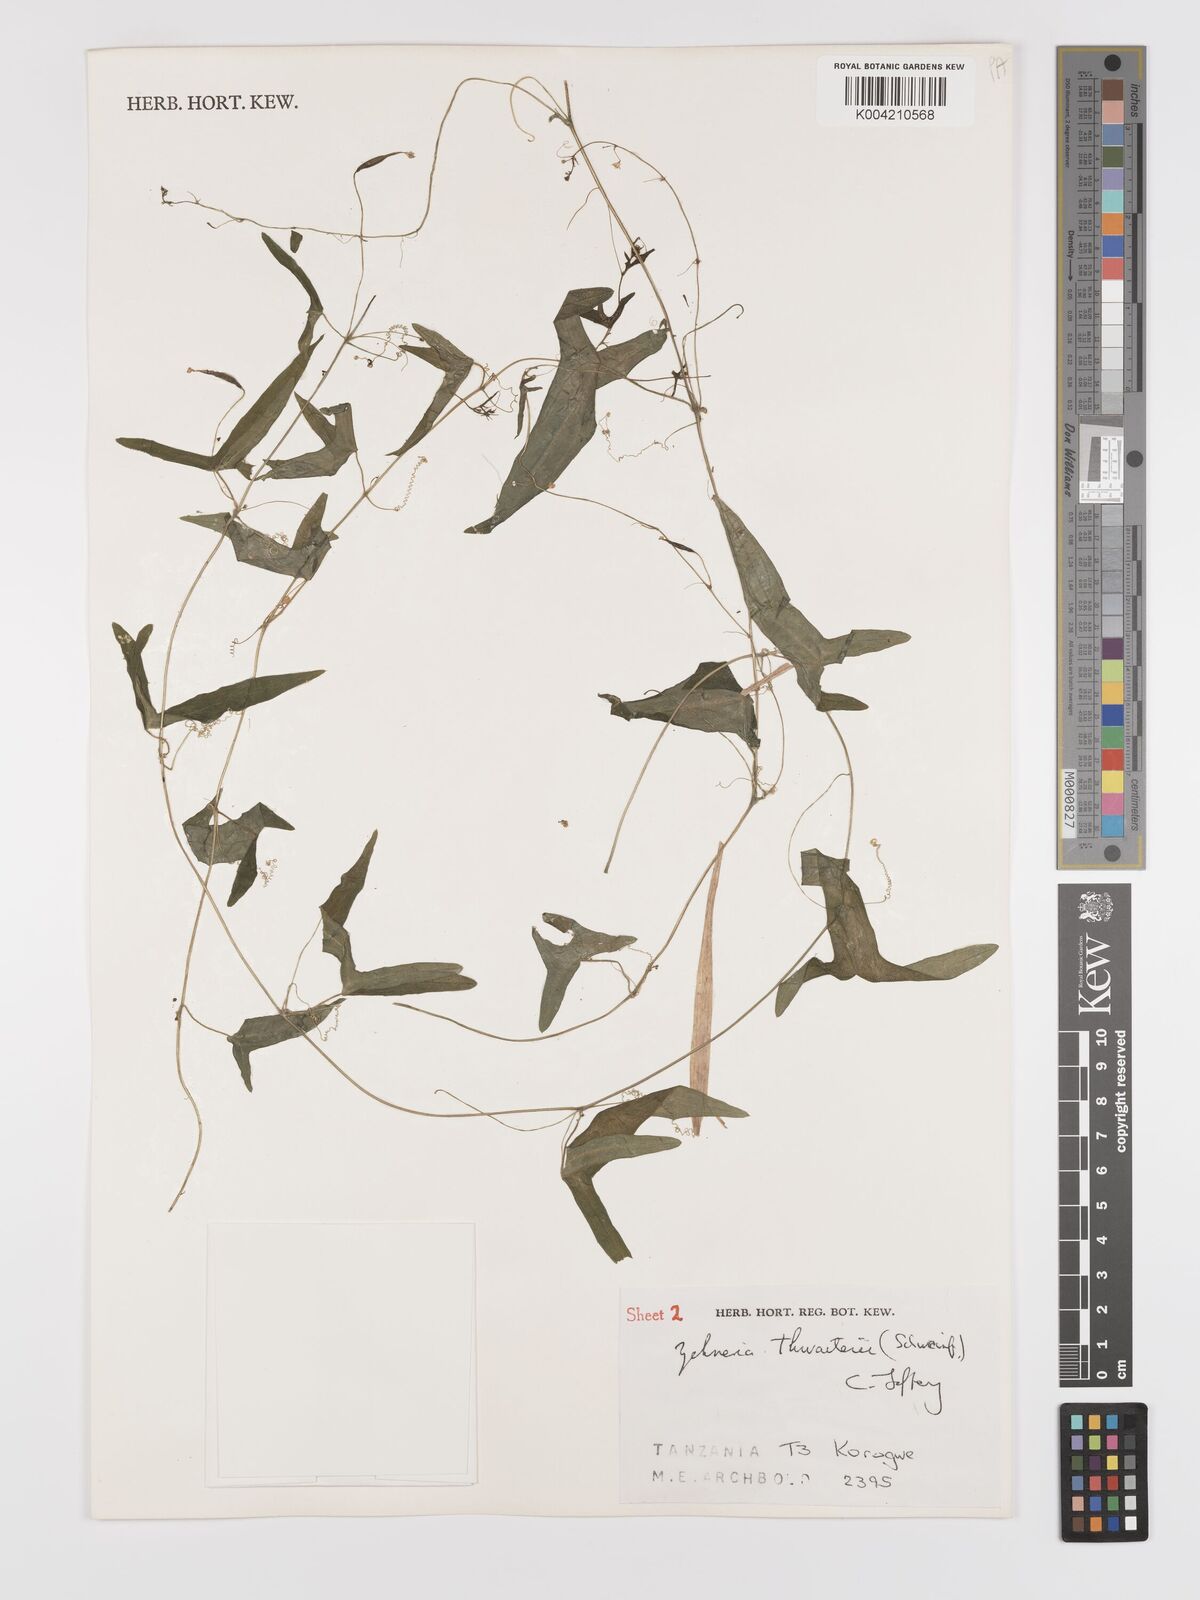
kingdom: Plantae
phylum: Tracheophyta
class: Magnoliopsida
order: Cucurbitales
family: Cucurbitaceae
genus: Zehneria
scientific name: Zehneria thwaitesii
